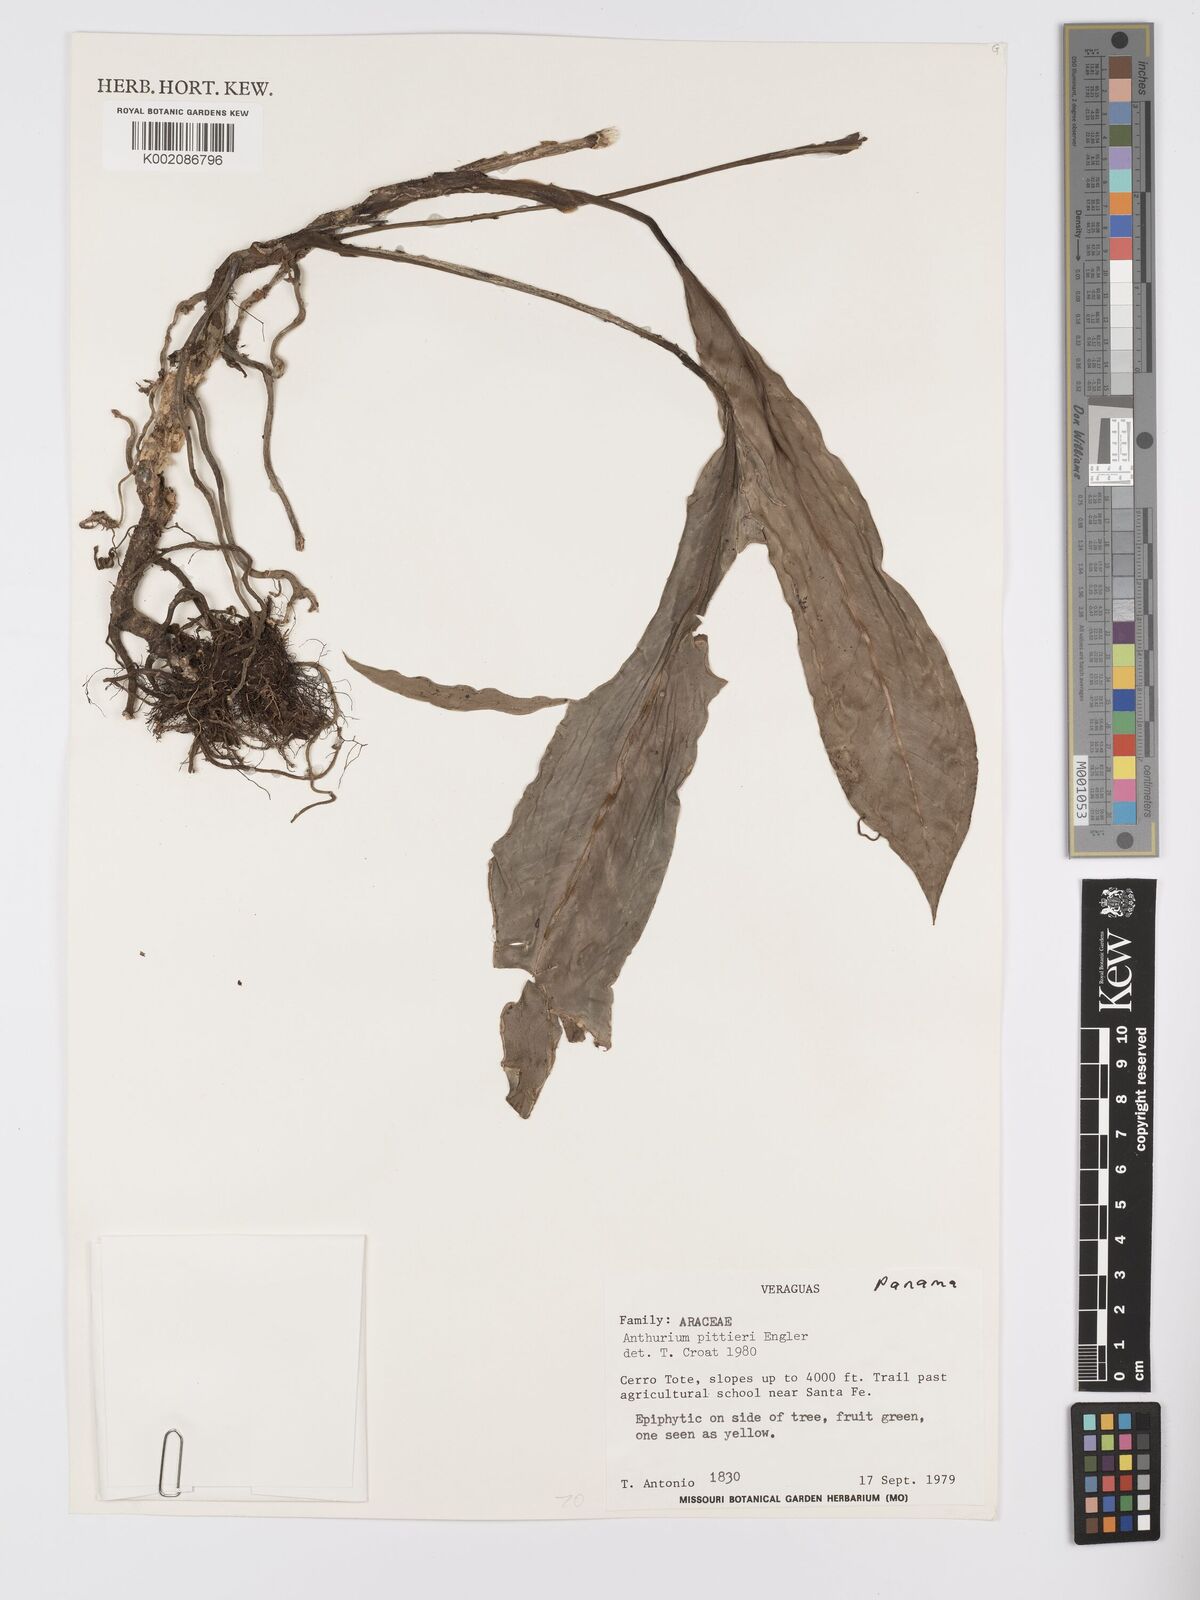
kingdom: Plantae
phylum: Tracheophyta
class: Liliopsida
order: Alismatales
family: Araceae
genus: Anthurium
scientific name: Anthurium pittieri
